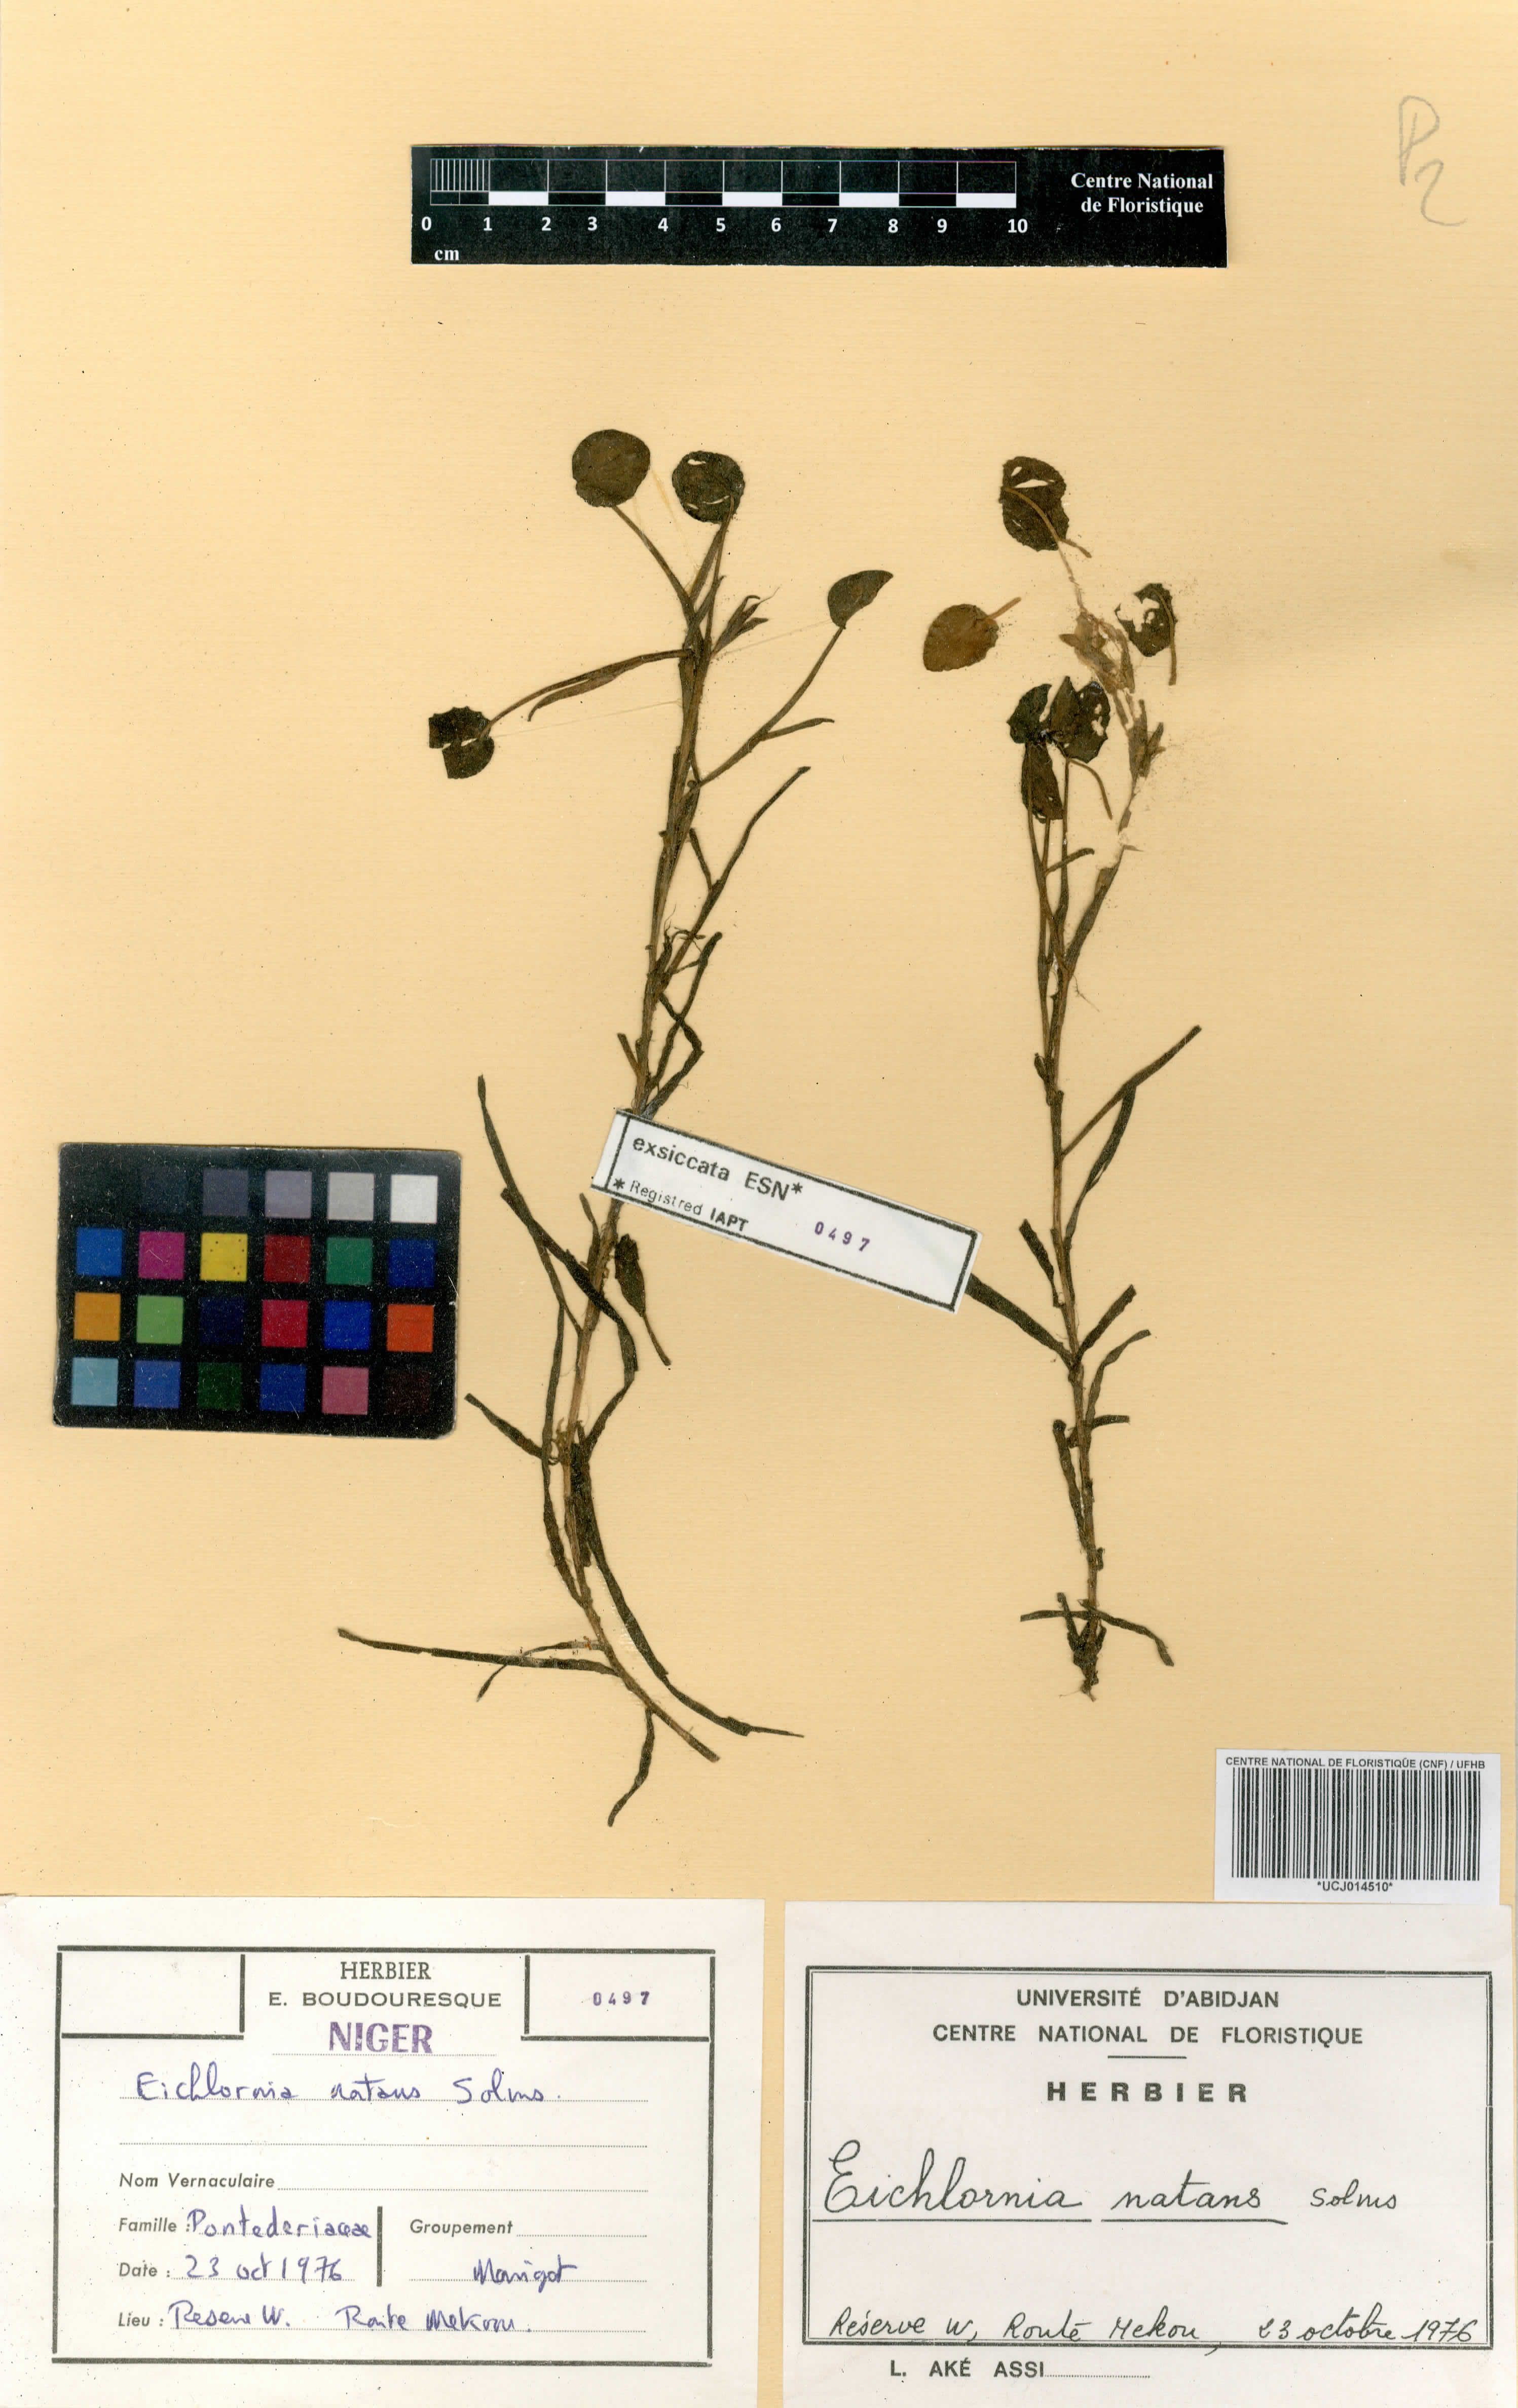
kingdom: Plantae
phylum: Tracheophyta
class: Liliopsida
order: Commelinales
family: Pontederiaceae
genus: Pontederia
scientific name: Pontederia natans
